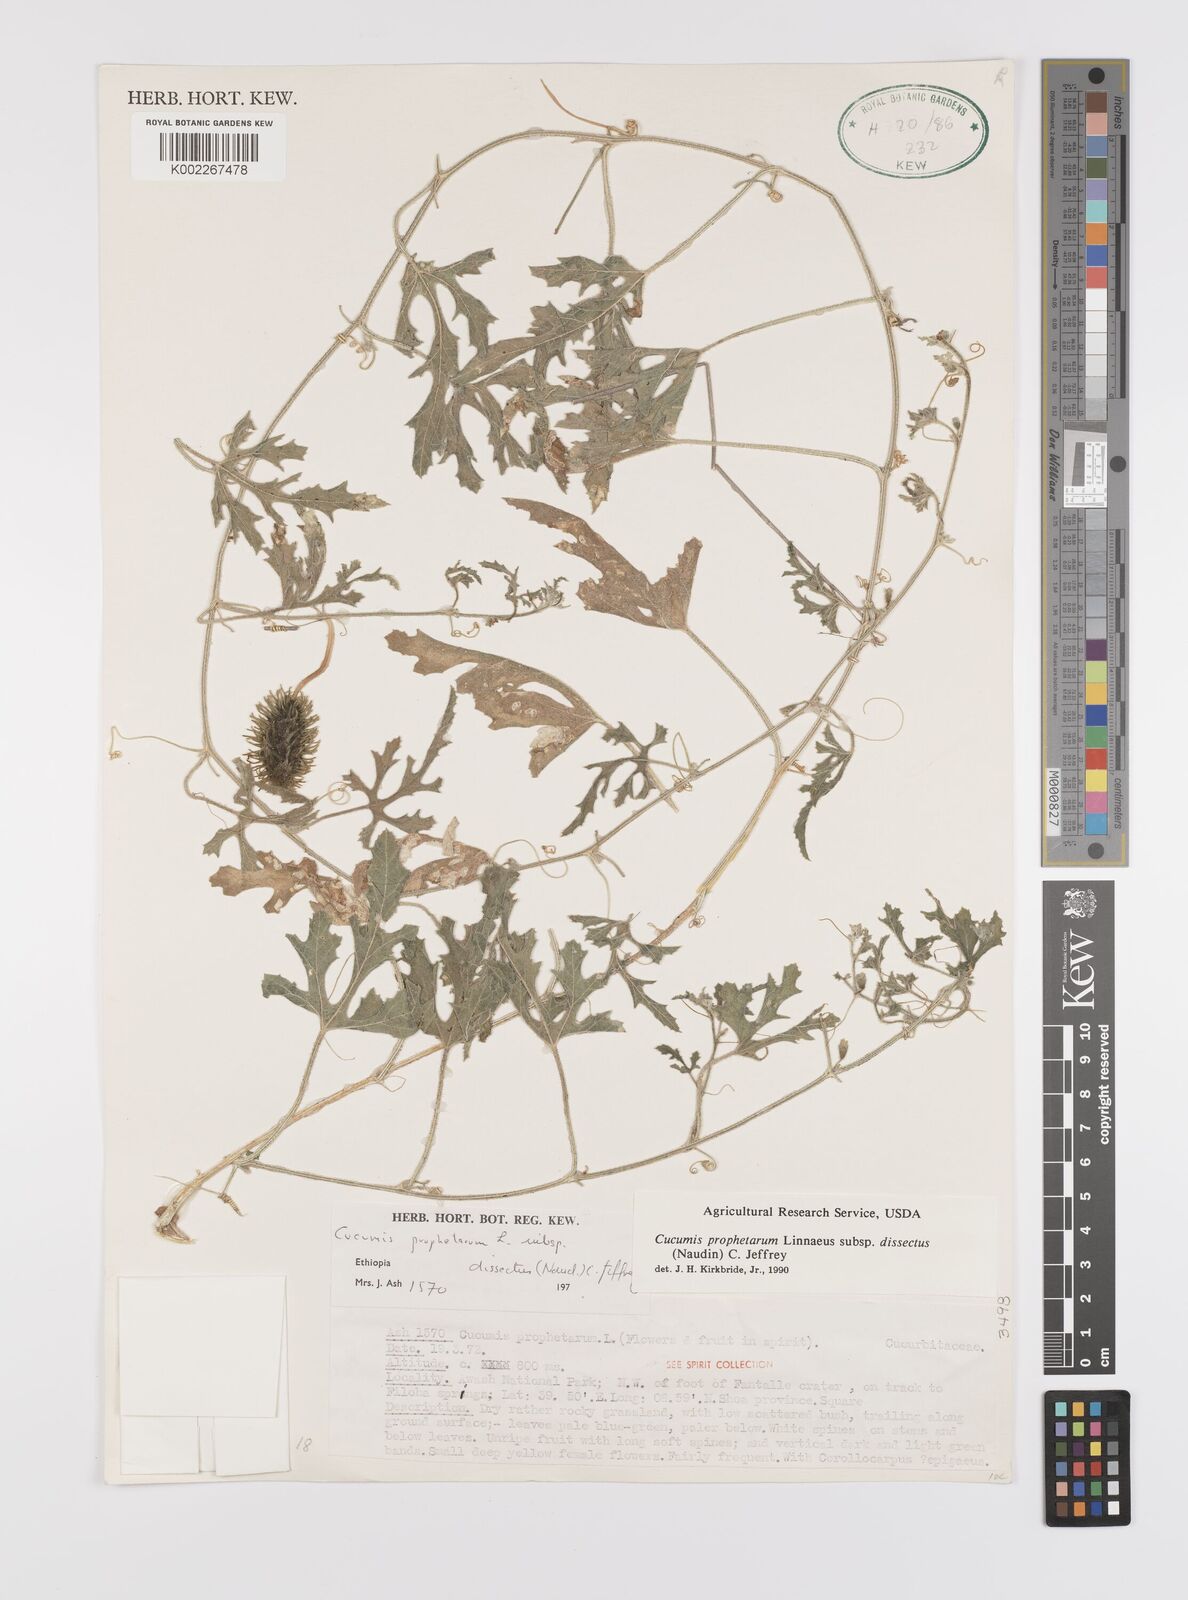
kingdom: Plantae
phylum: Tracheophyta
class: Magnoliopsida
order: Cucurbitales
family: Cucurbitaceae
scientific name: Cucurbitaceae
